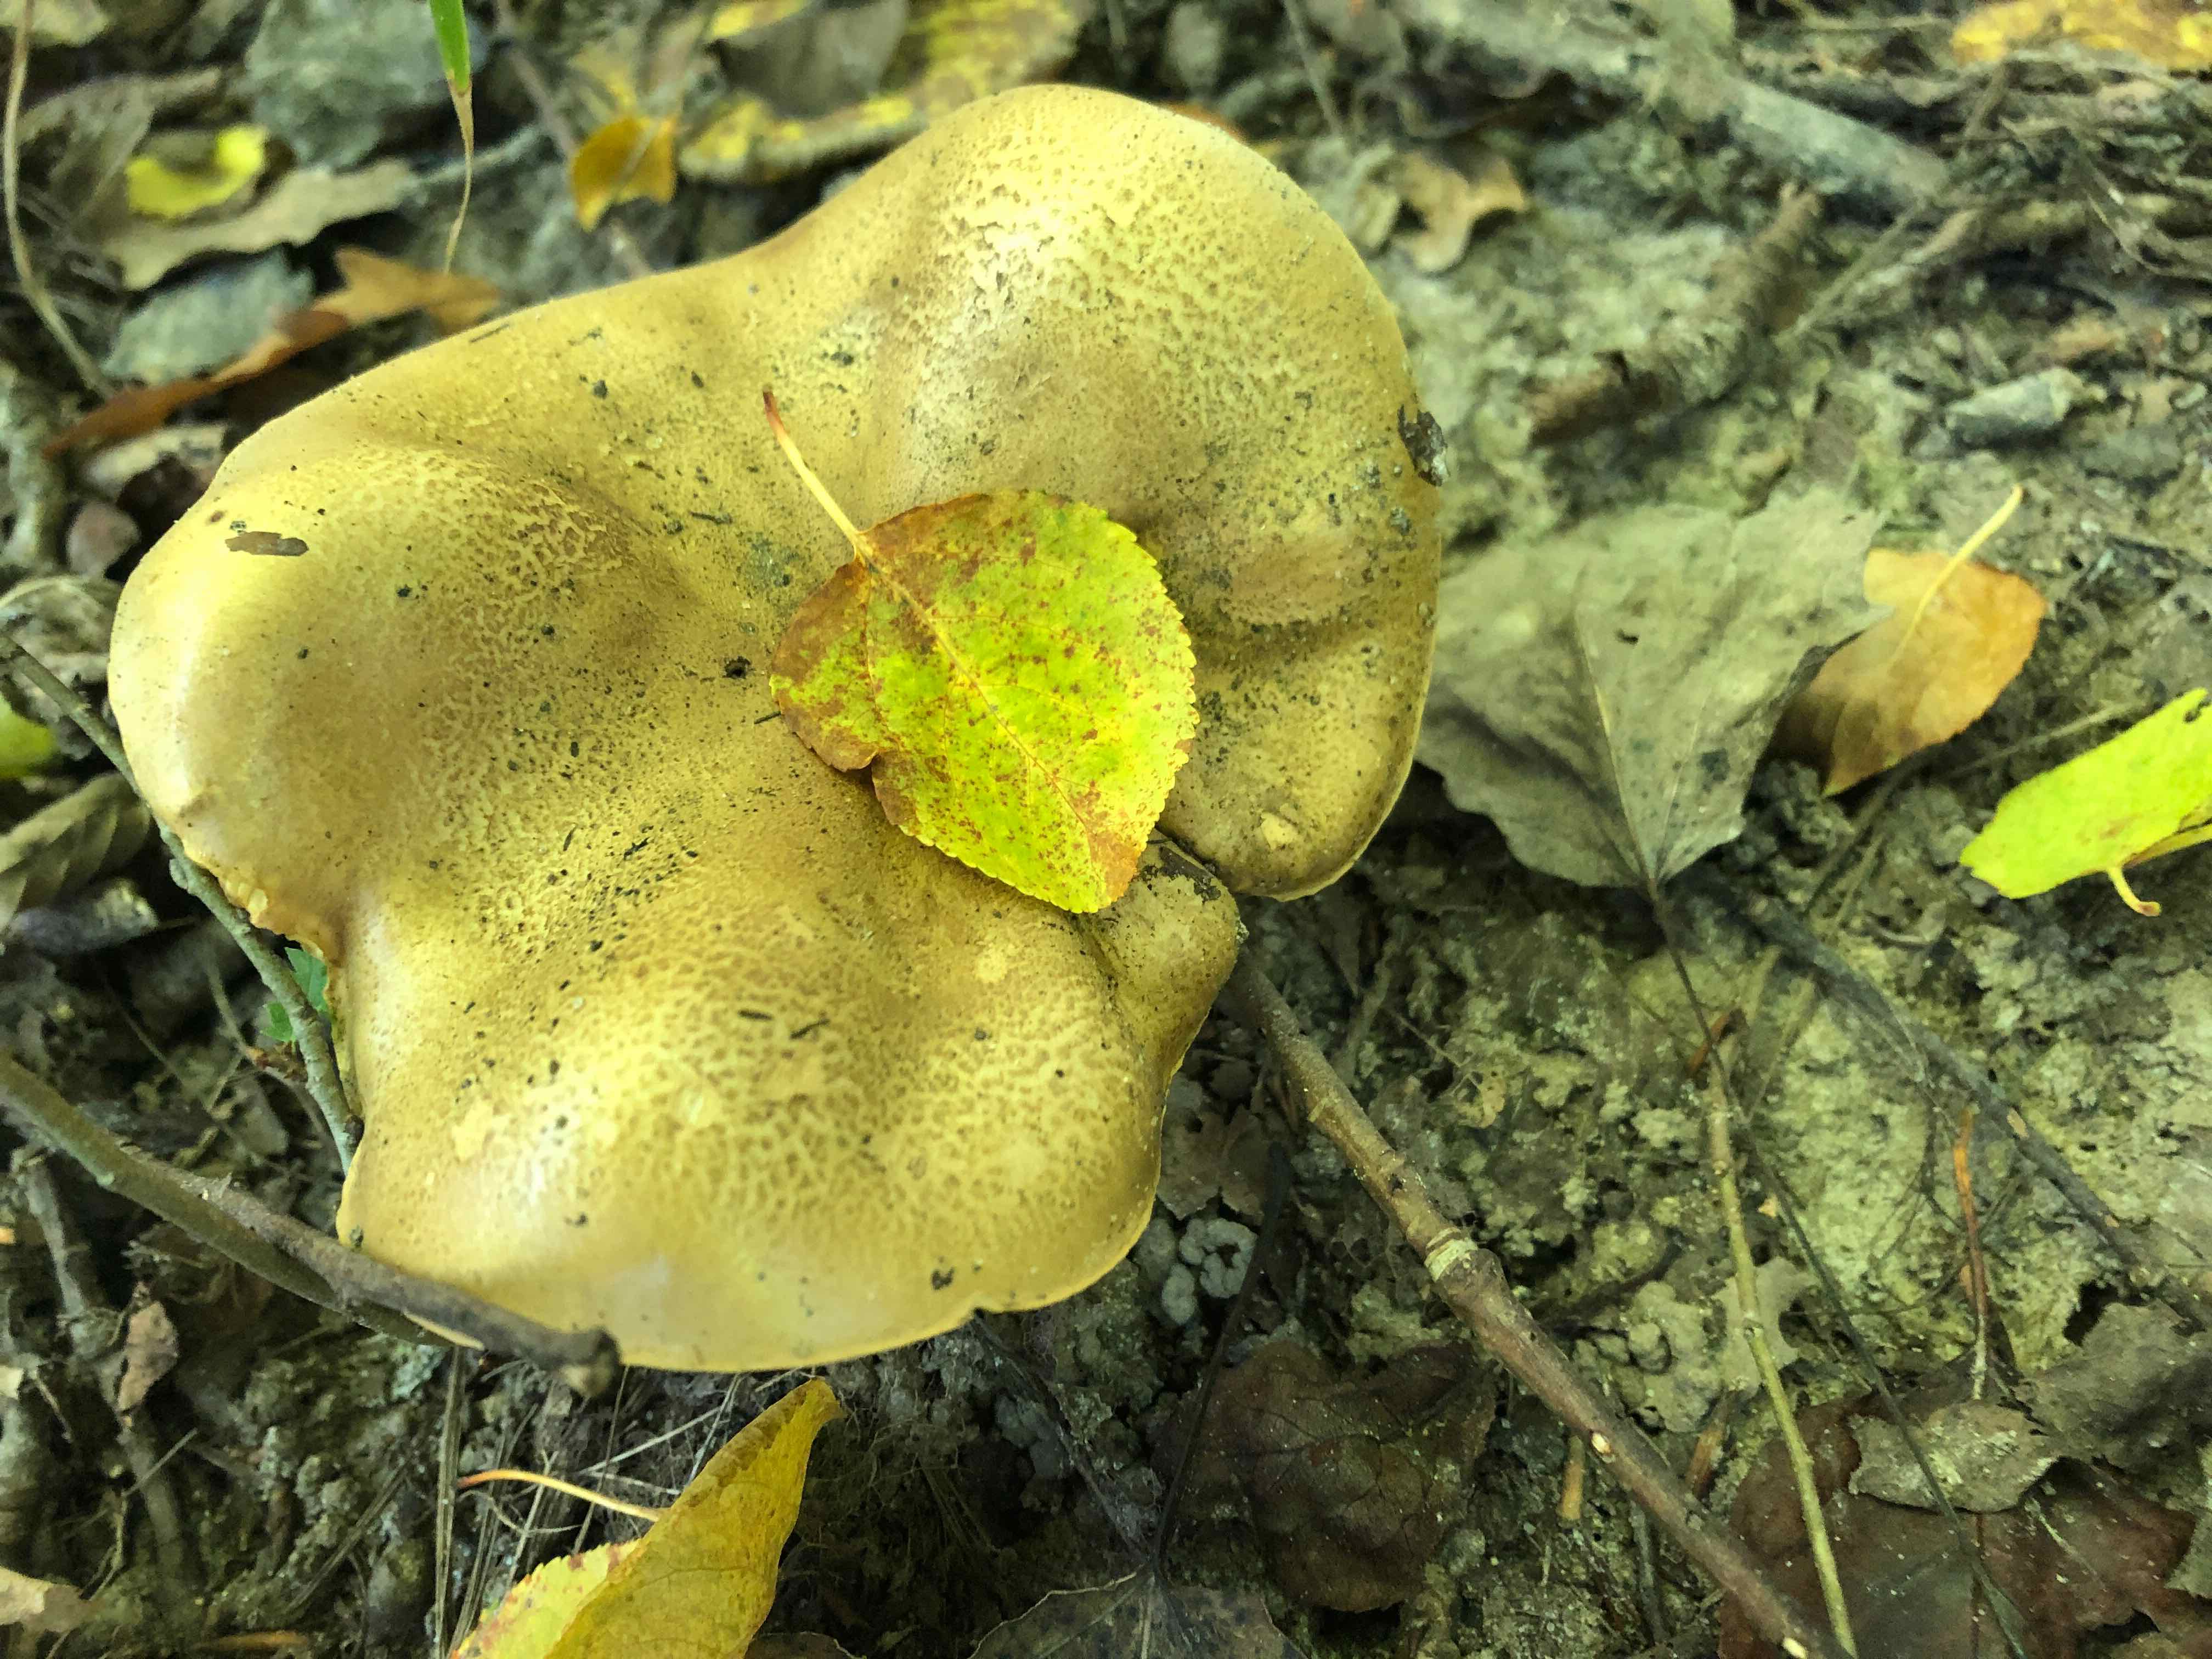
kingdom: Fungi
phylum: Basidiomycota
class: Agaricomycetes
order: Agaricales
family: Tricholomataceae
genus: Tricholoma
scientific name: Tricholoma frondosae
